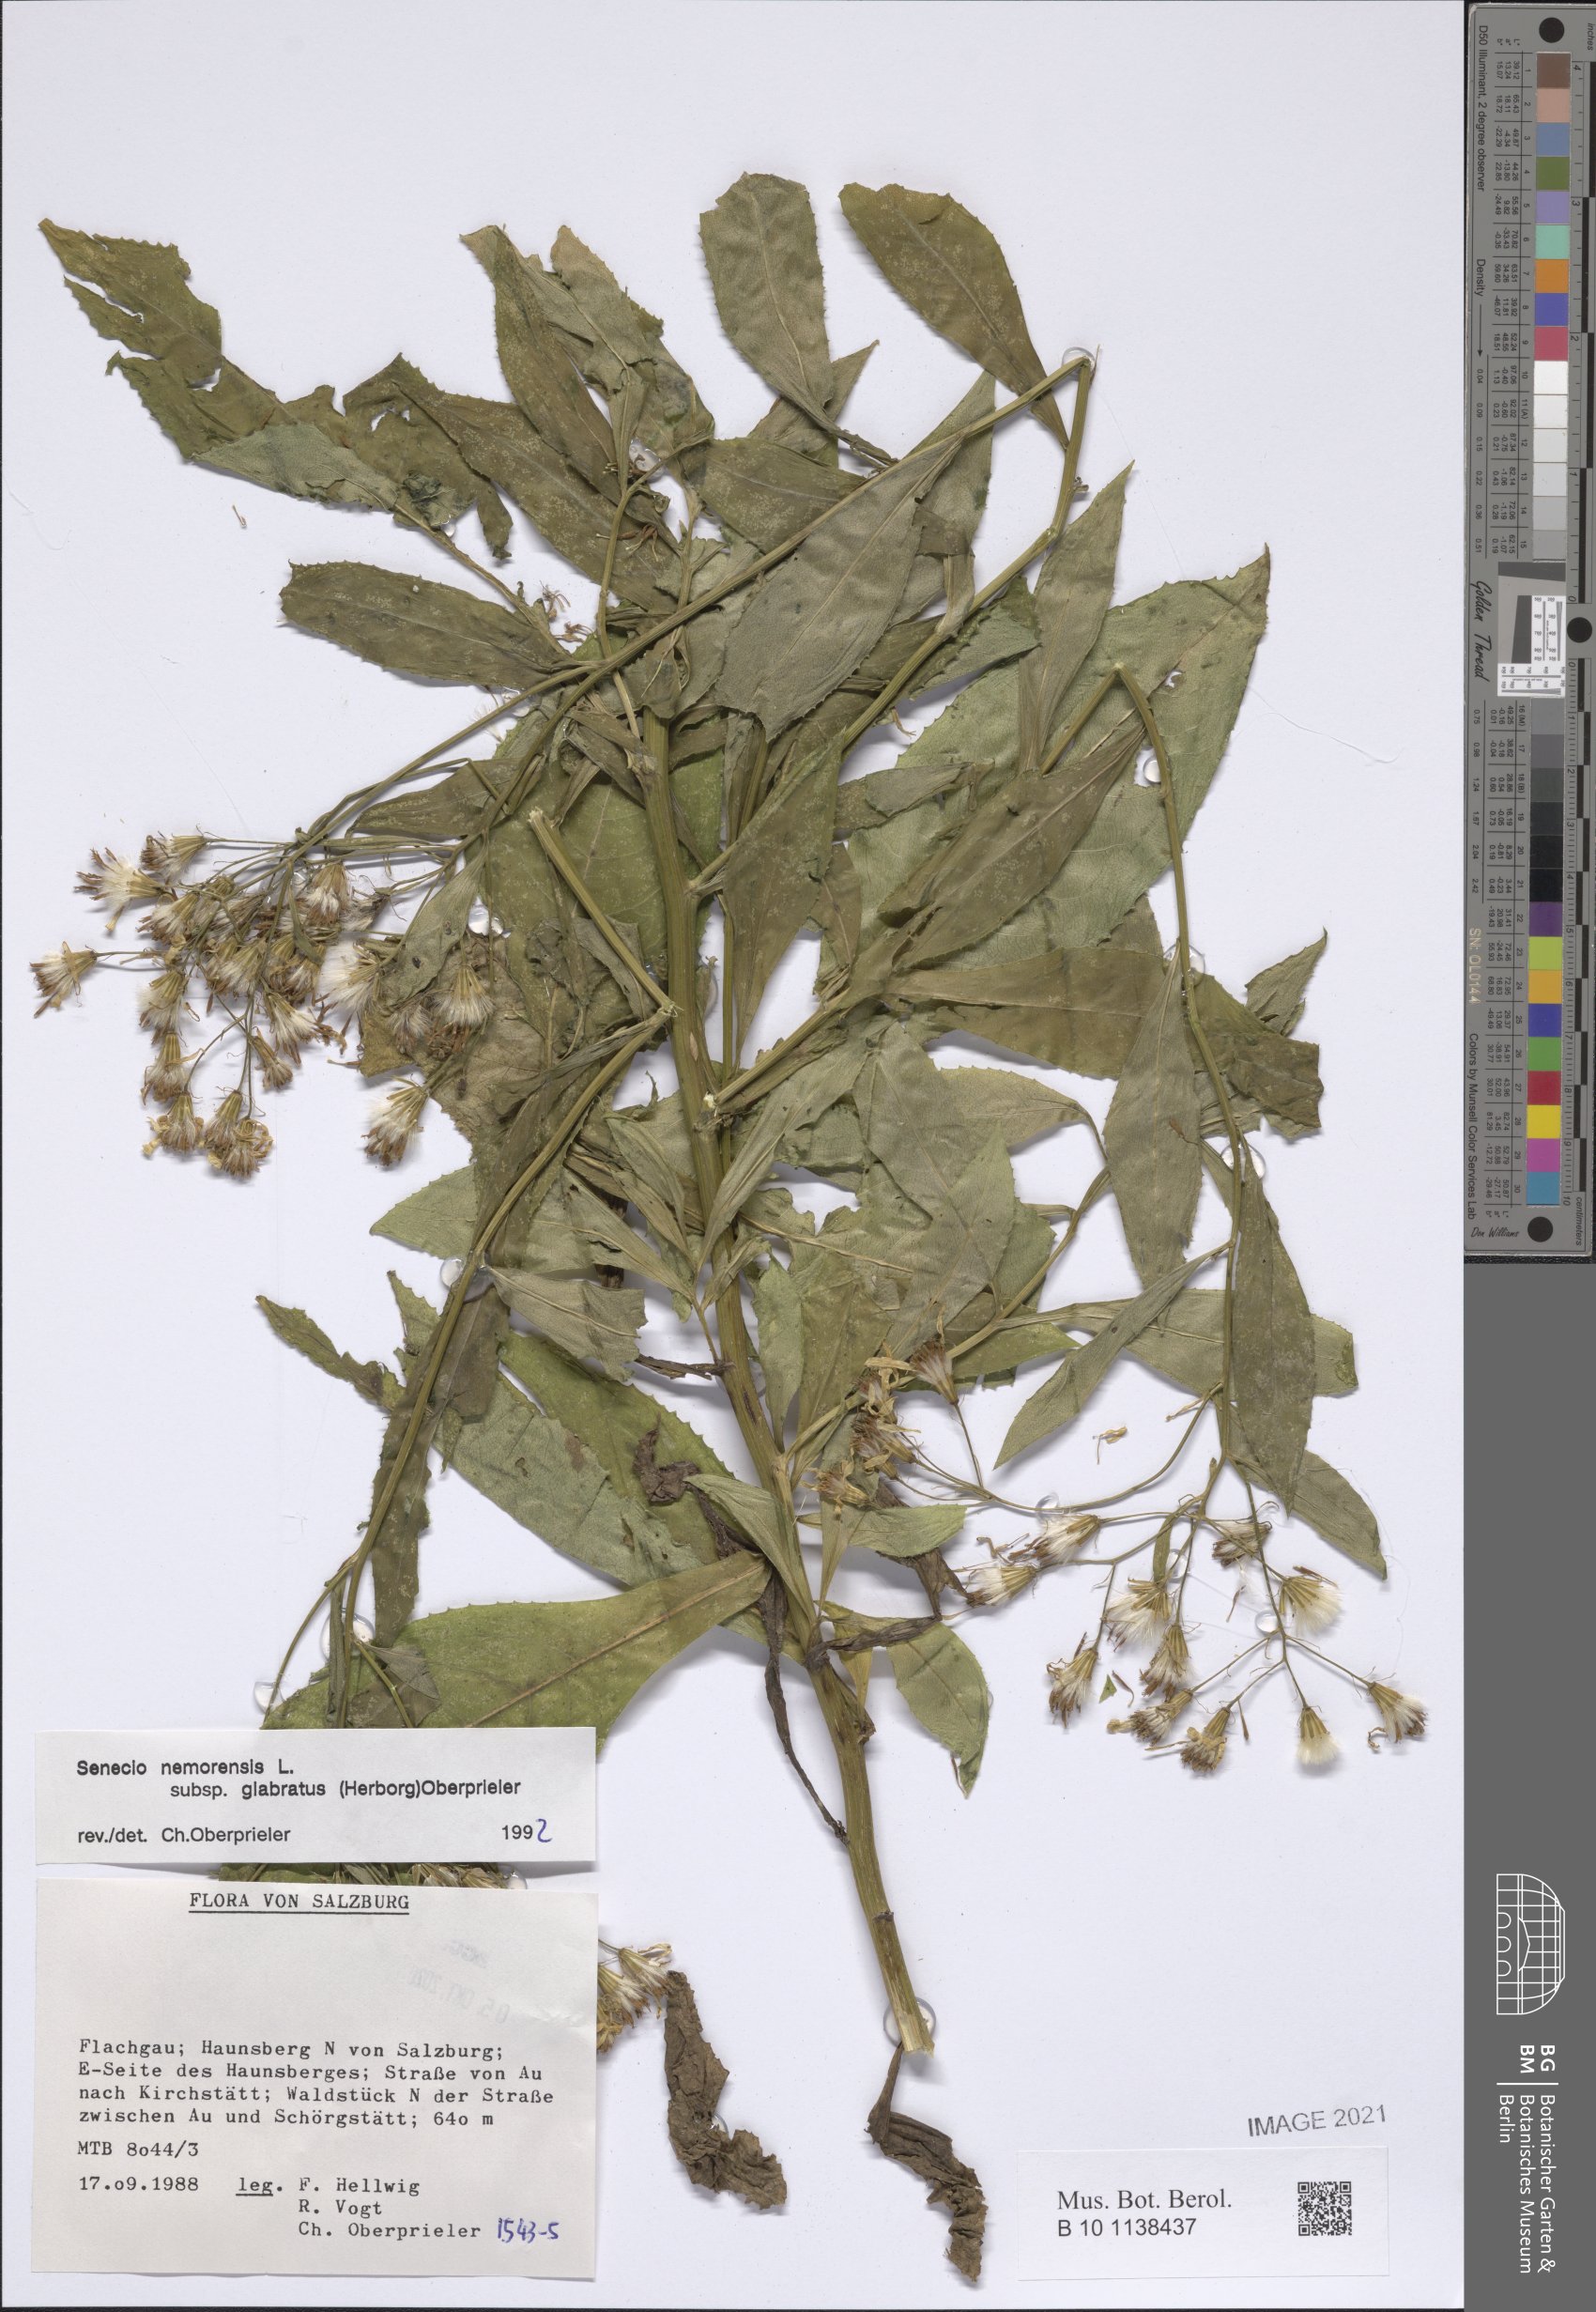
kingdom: Plantae
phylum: Tracheophyta
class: Magnoliopsida
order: Asterales
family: Asteraceae
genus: Senecio
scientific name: Senecio germanicus
